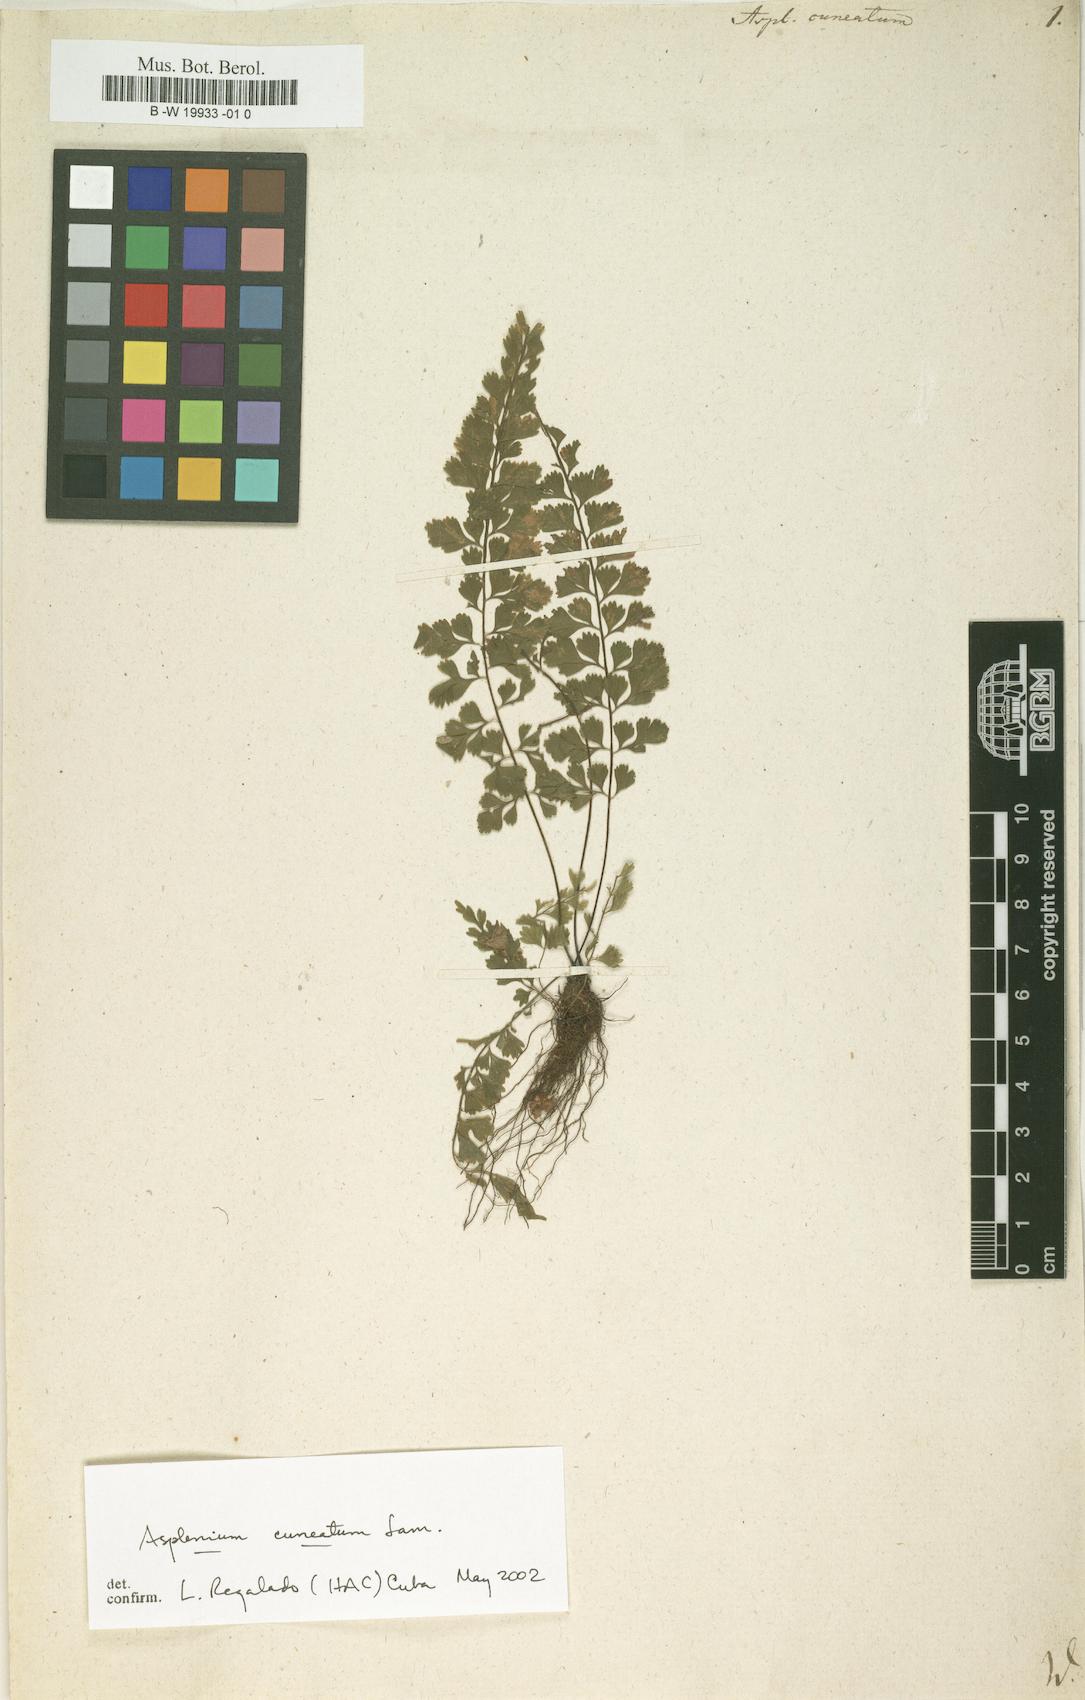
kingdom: Plantae
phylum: Tracheophyta
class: Polypodiopsida
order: Polypodiales
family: Aspleniaceae
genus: Asplenium
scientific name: Asplenium cuneatum
